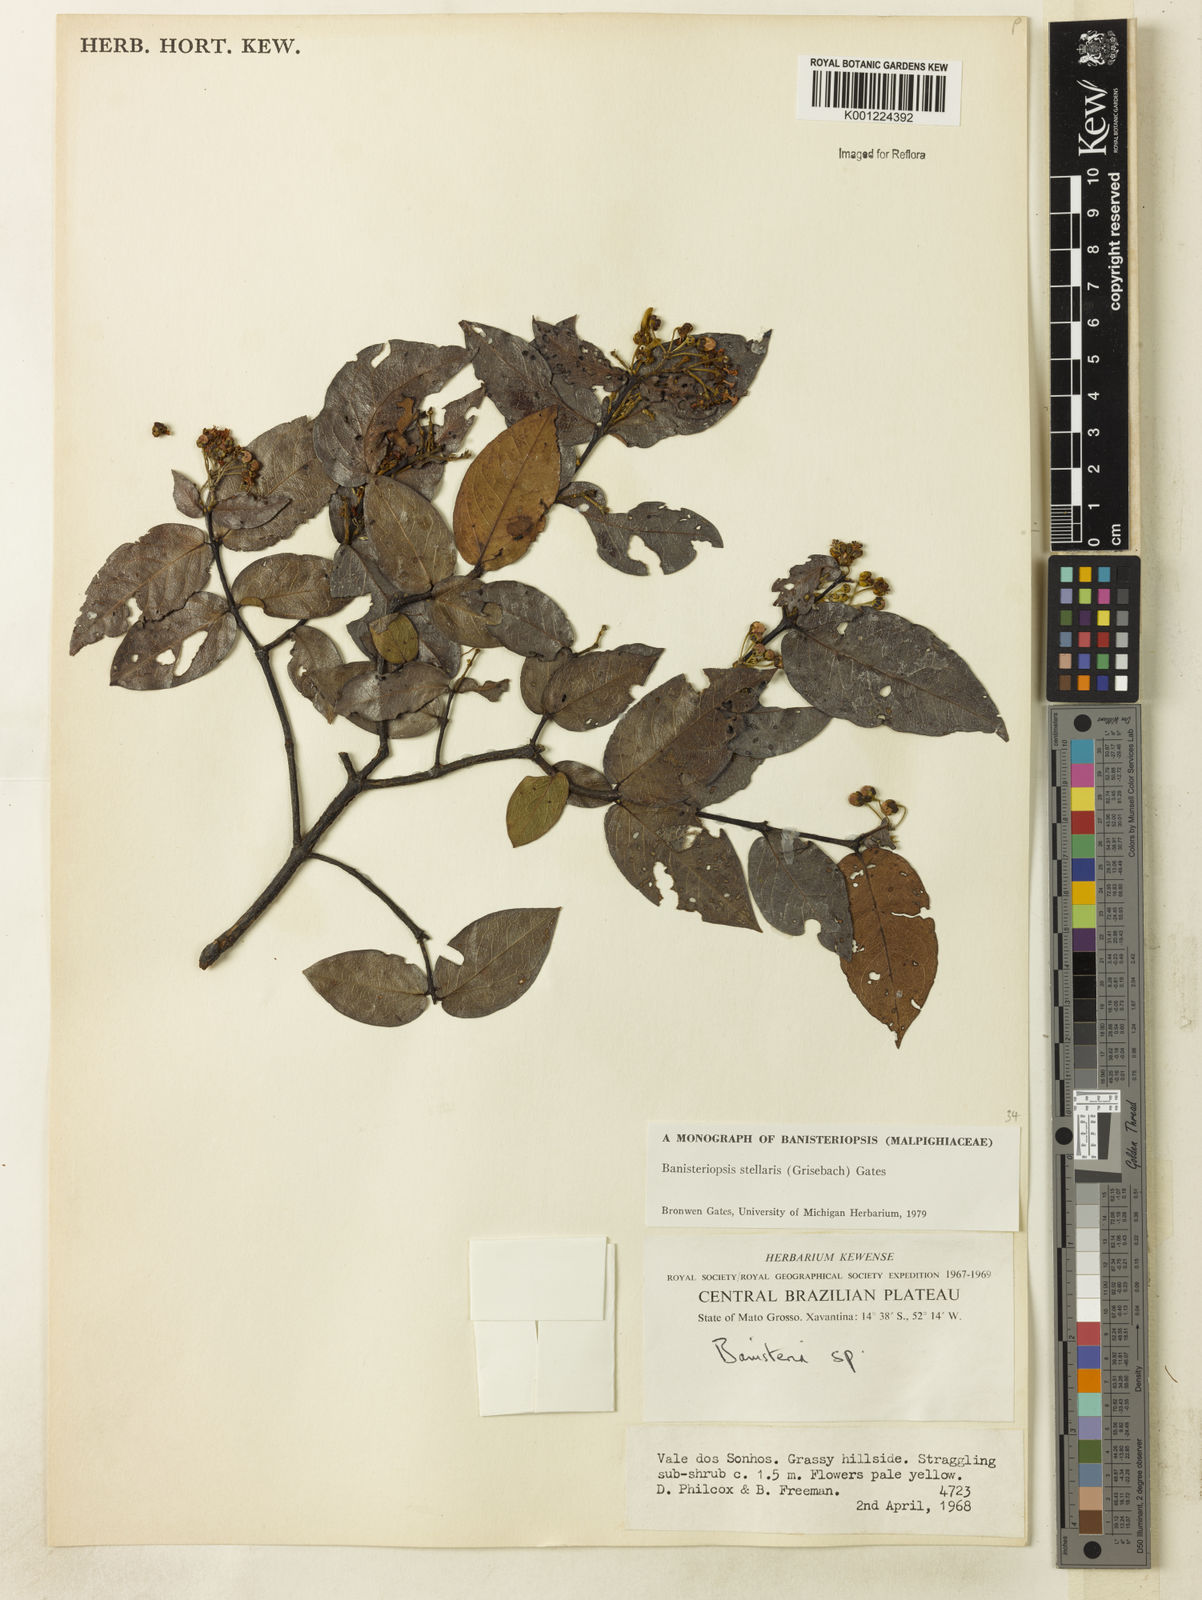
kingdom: Plantae
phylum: Tracheophyta
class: Magnoliopsida
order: Malpighiales
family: Malpighiaceae
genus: Banisteriopsis
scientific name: Banisteriopsis stellaris
